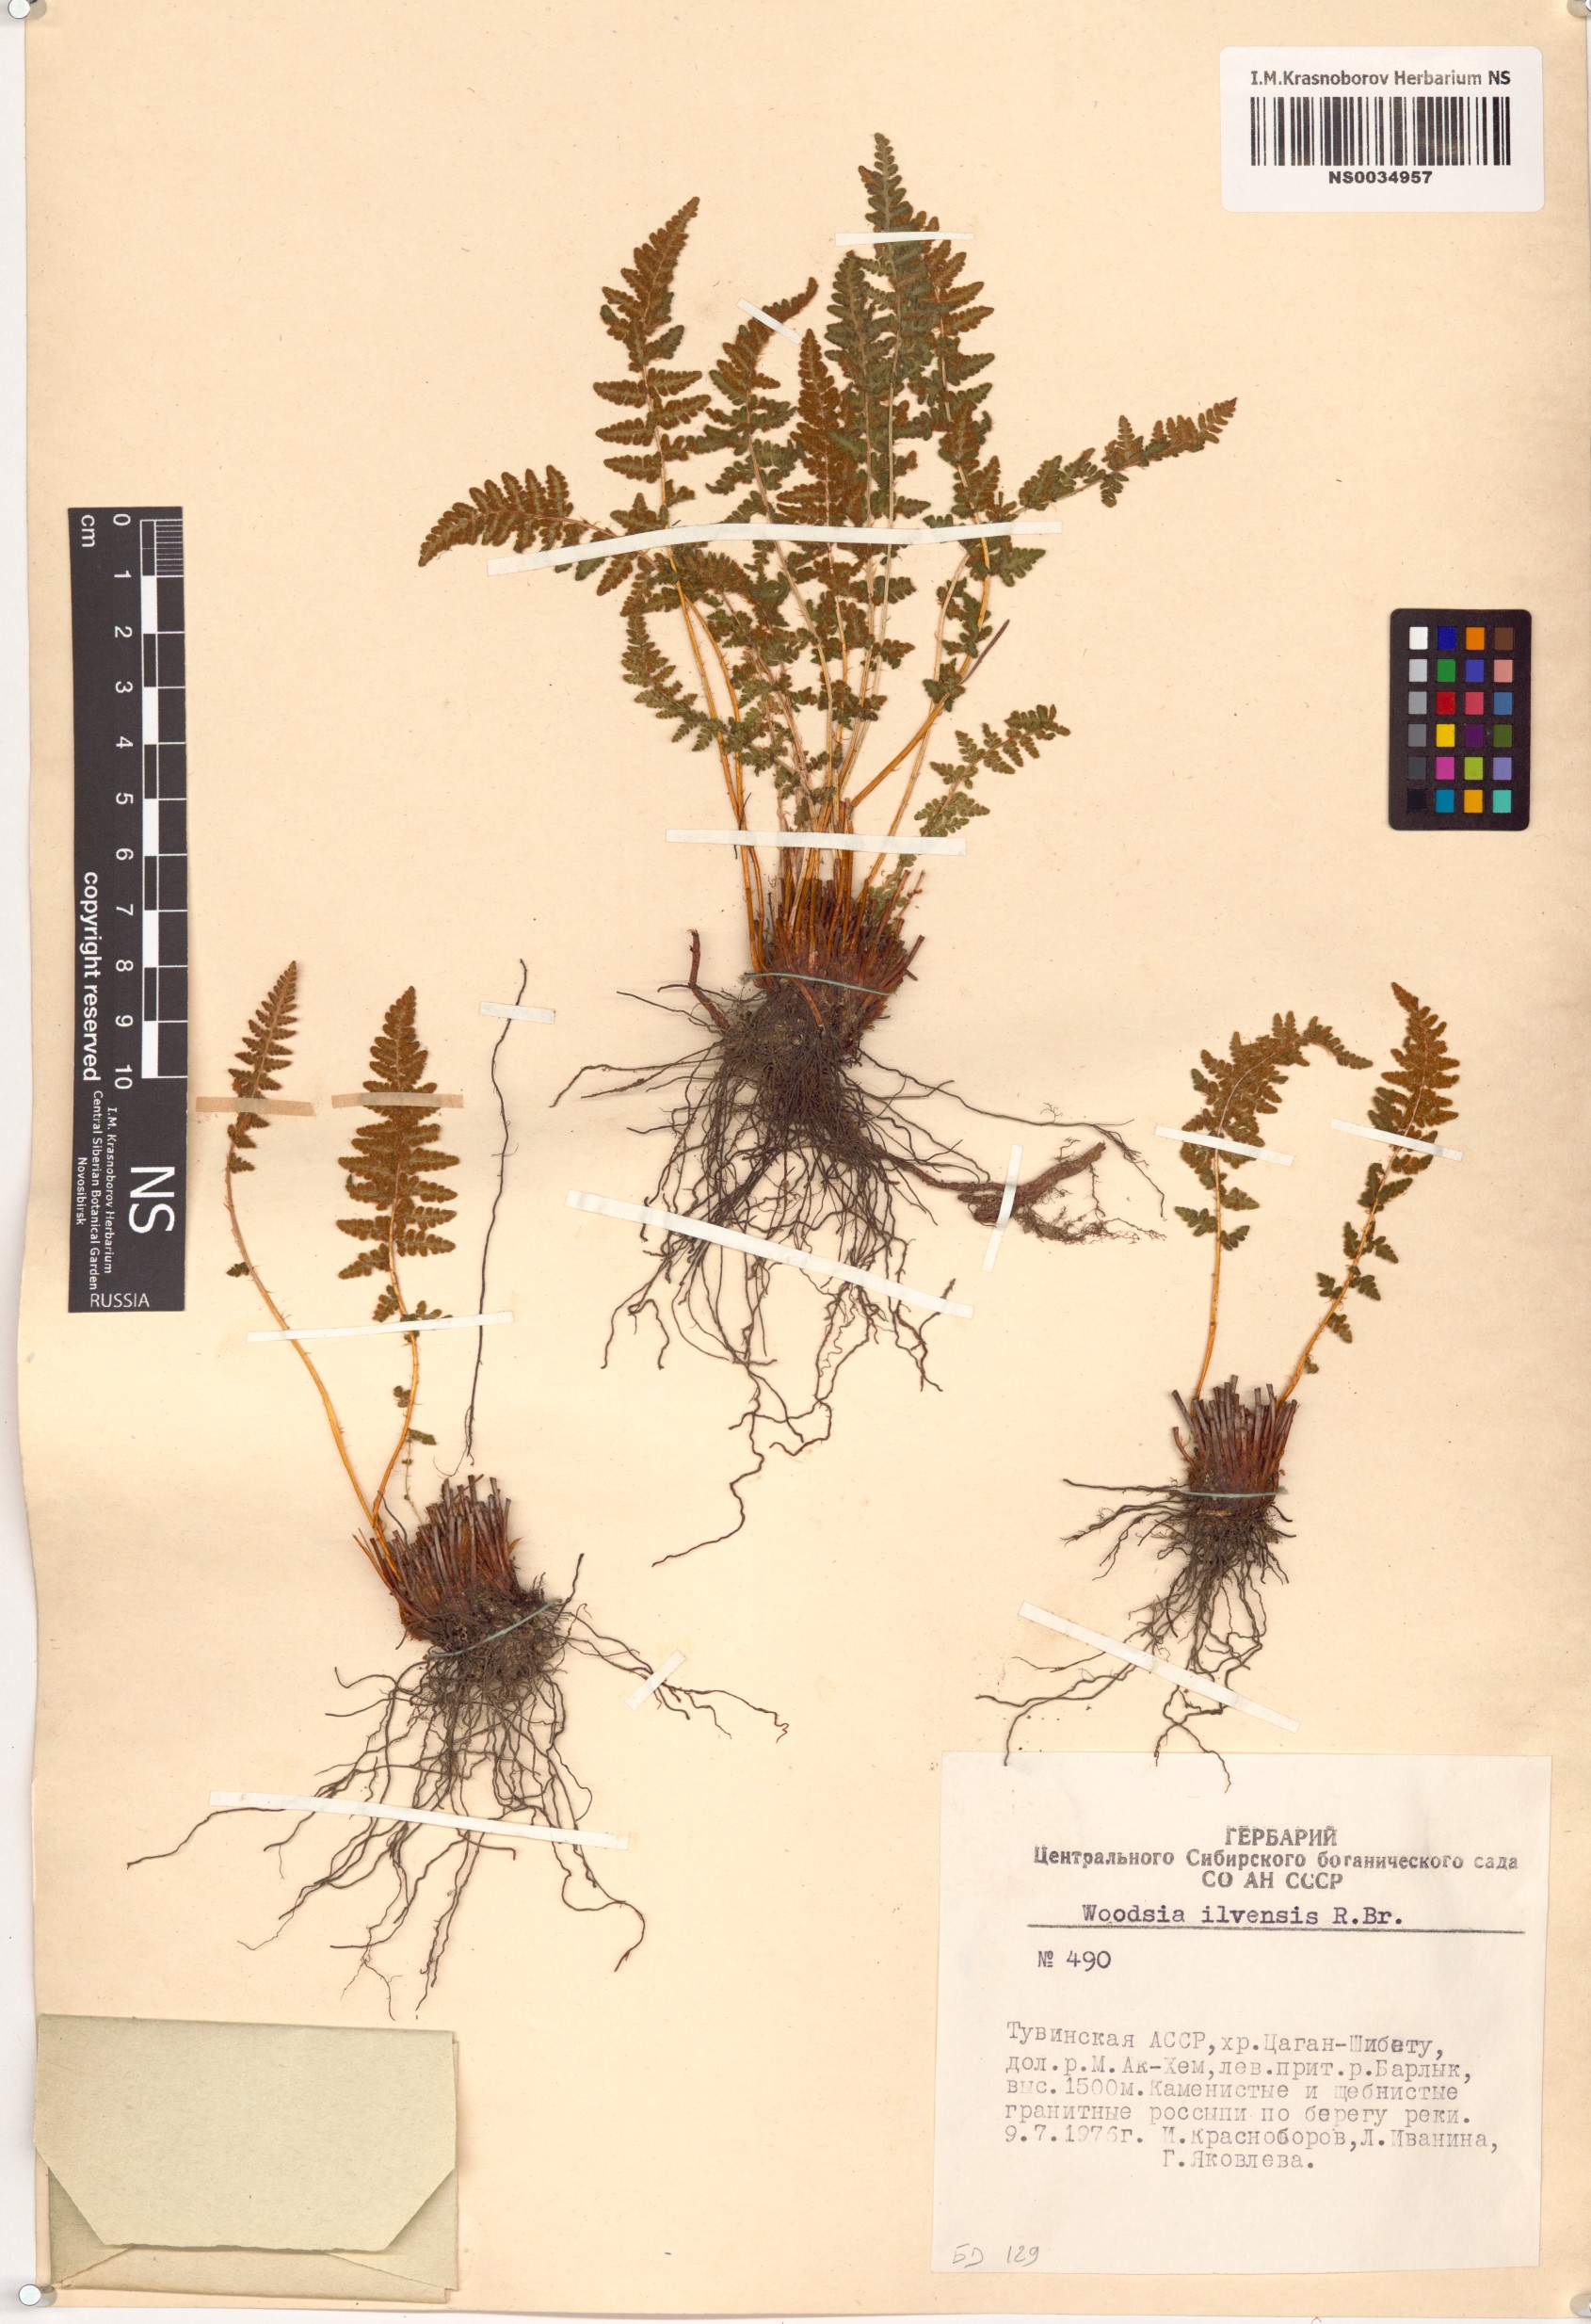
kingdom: Plantae
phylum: Tracheophyta
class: Polypodiopsida
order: Polypodiales
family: Woodsiaceae
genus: Woodsia
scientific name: Woodsia ilvensis
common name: Fragrant woodsia
